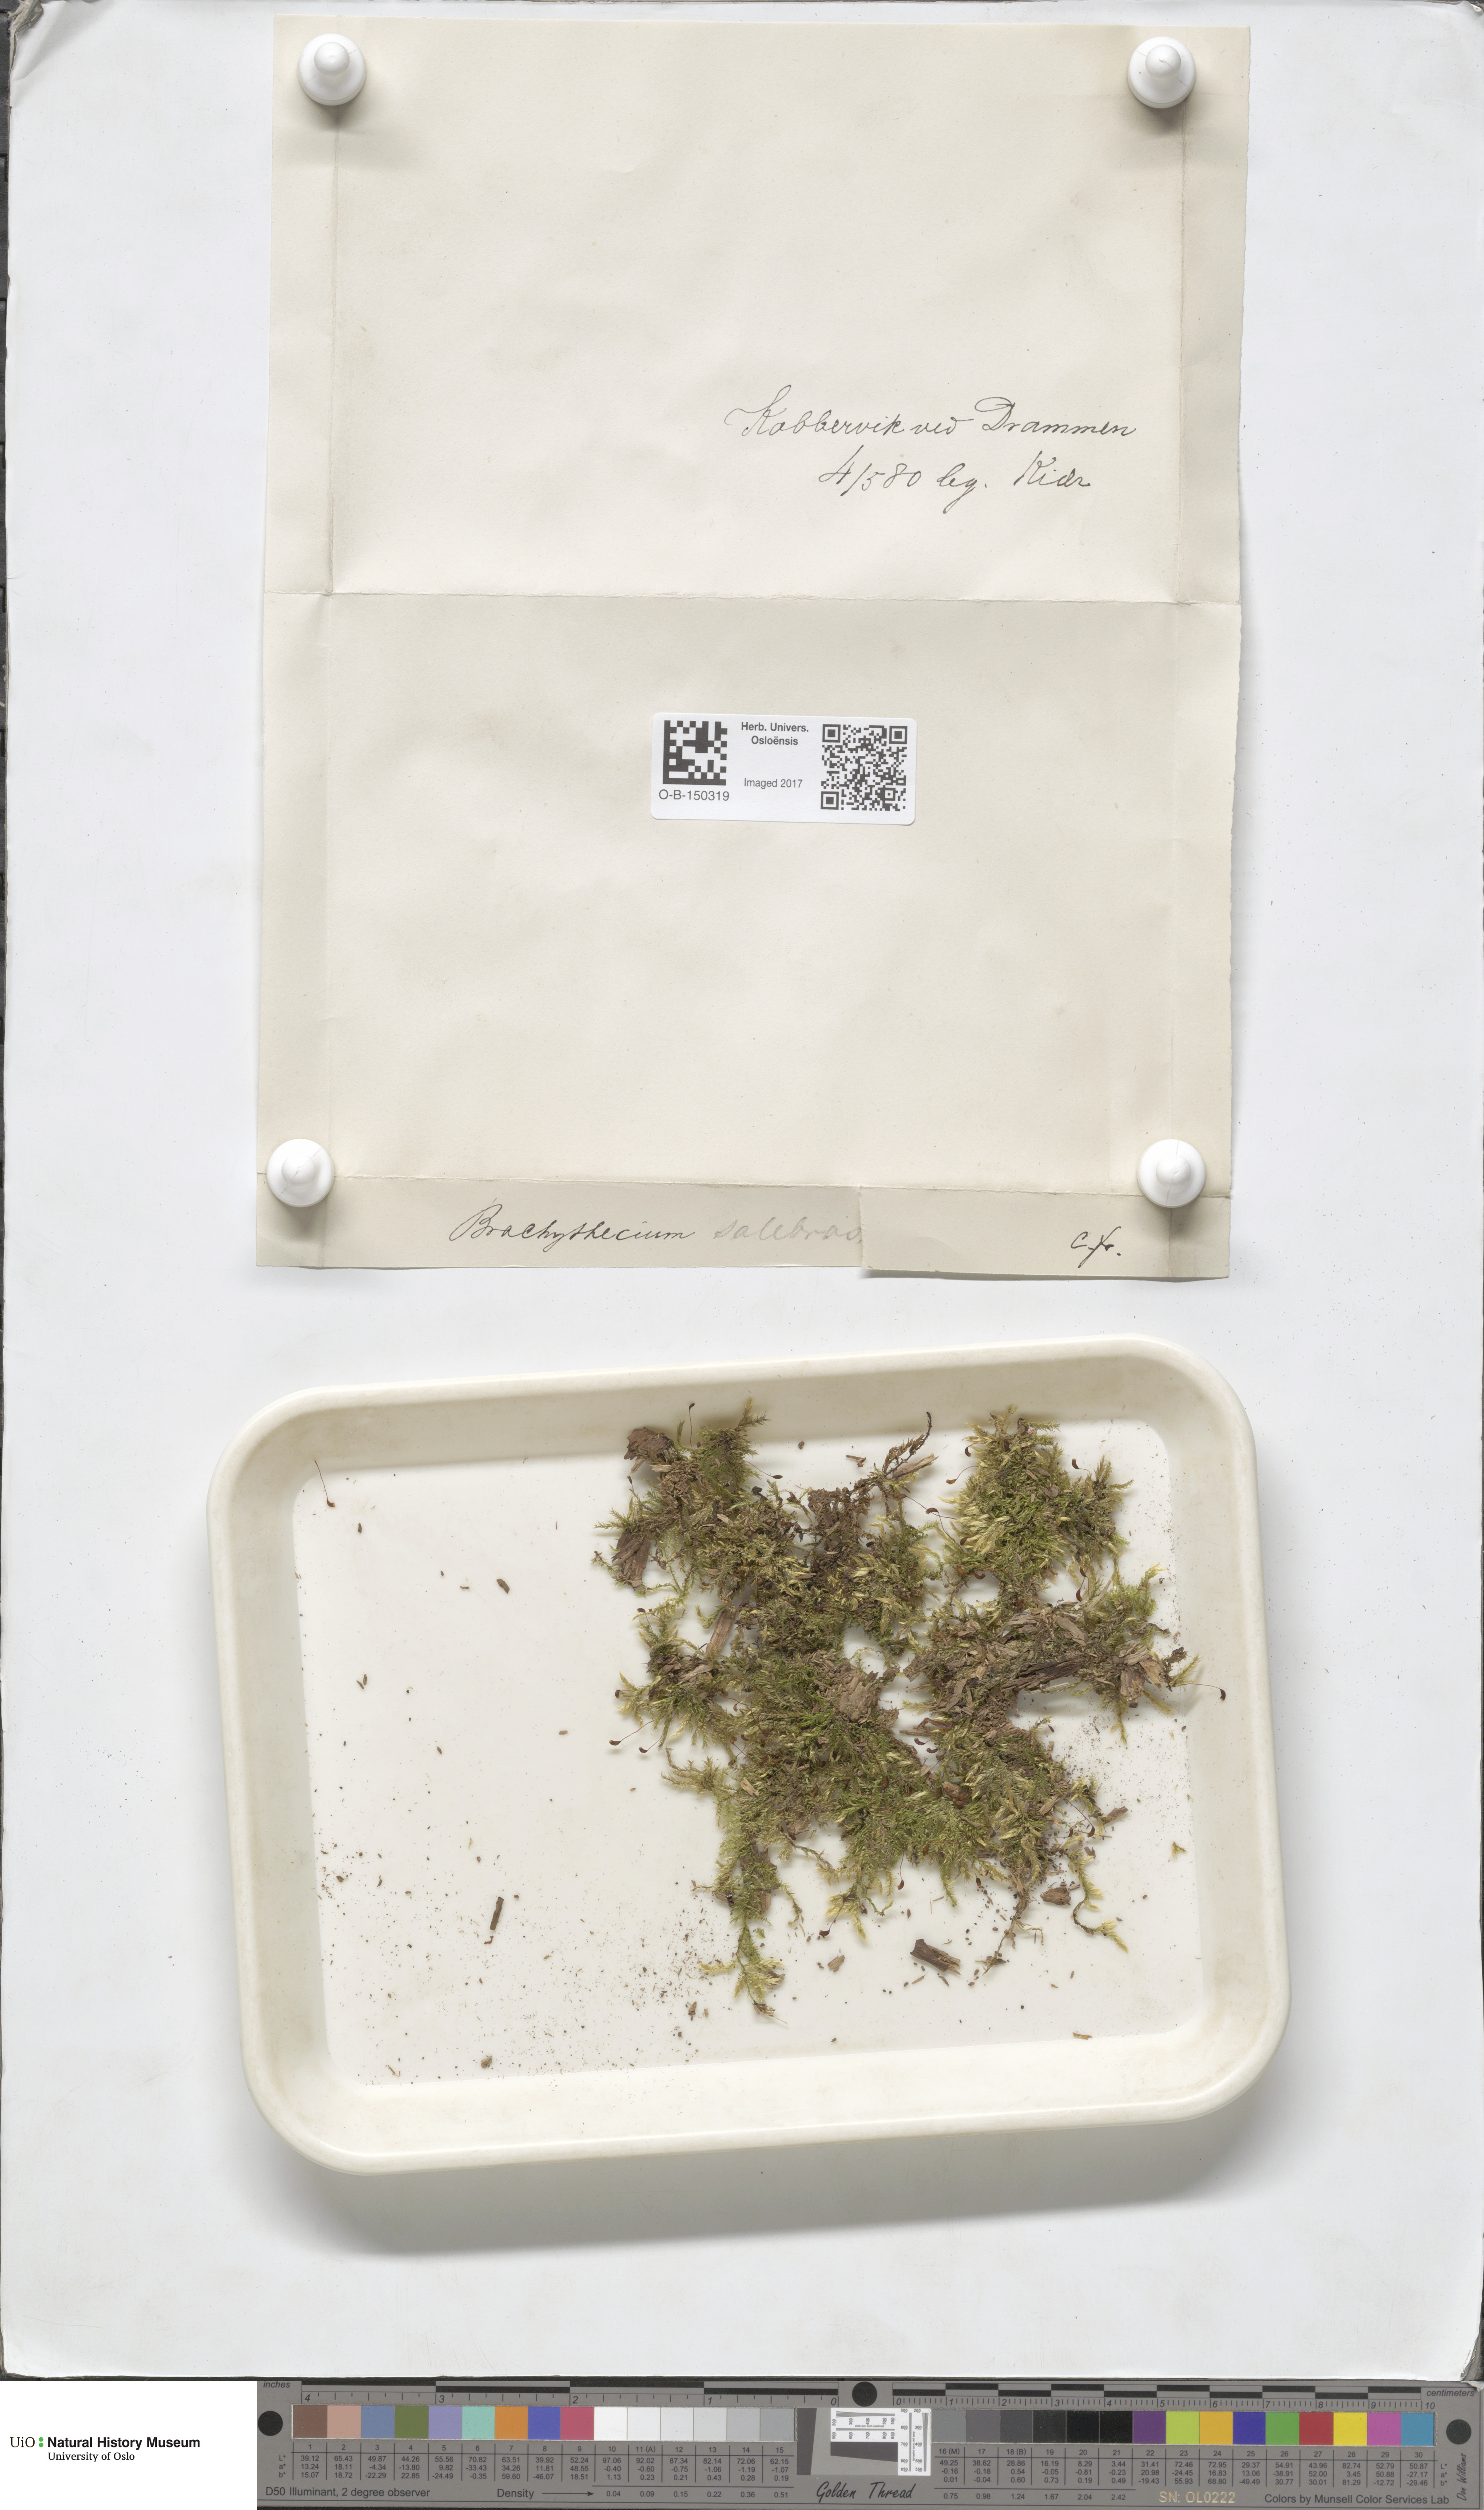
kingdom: Plantae
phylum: Bryophyta
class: Bryopsida
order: Hypnales
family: Brachytheciaceae
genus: Brachythecium
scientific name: Brachythecium salebrosum
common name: Smooth-stalk feather-moss
